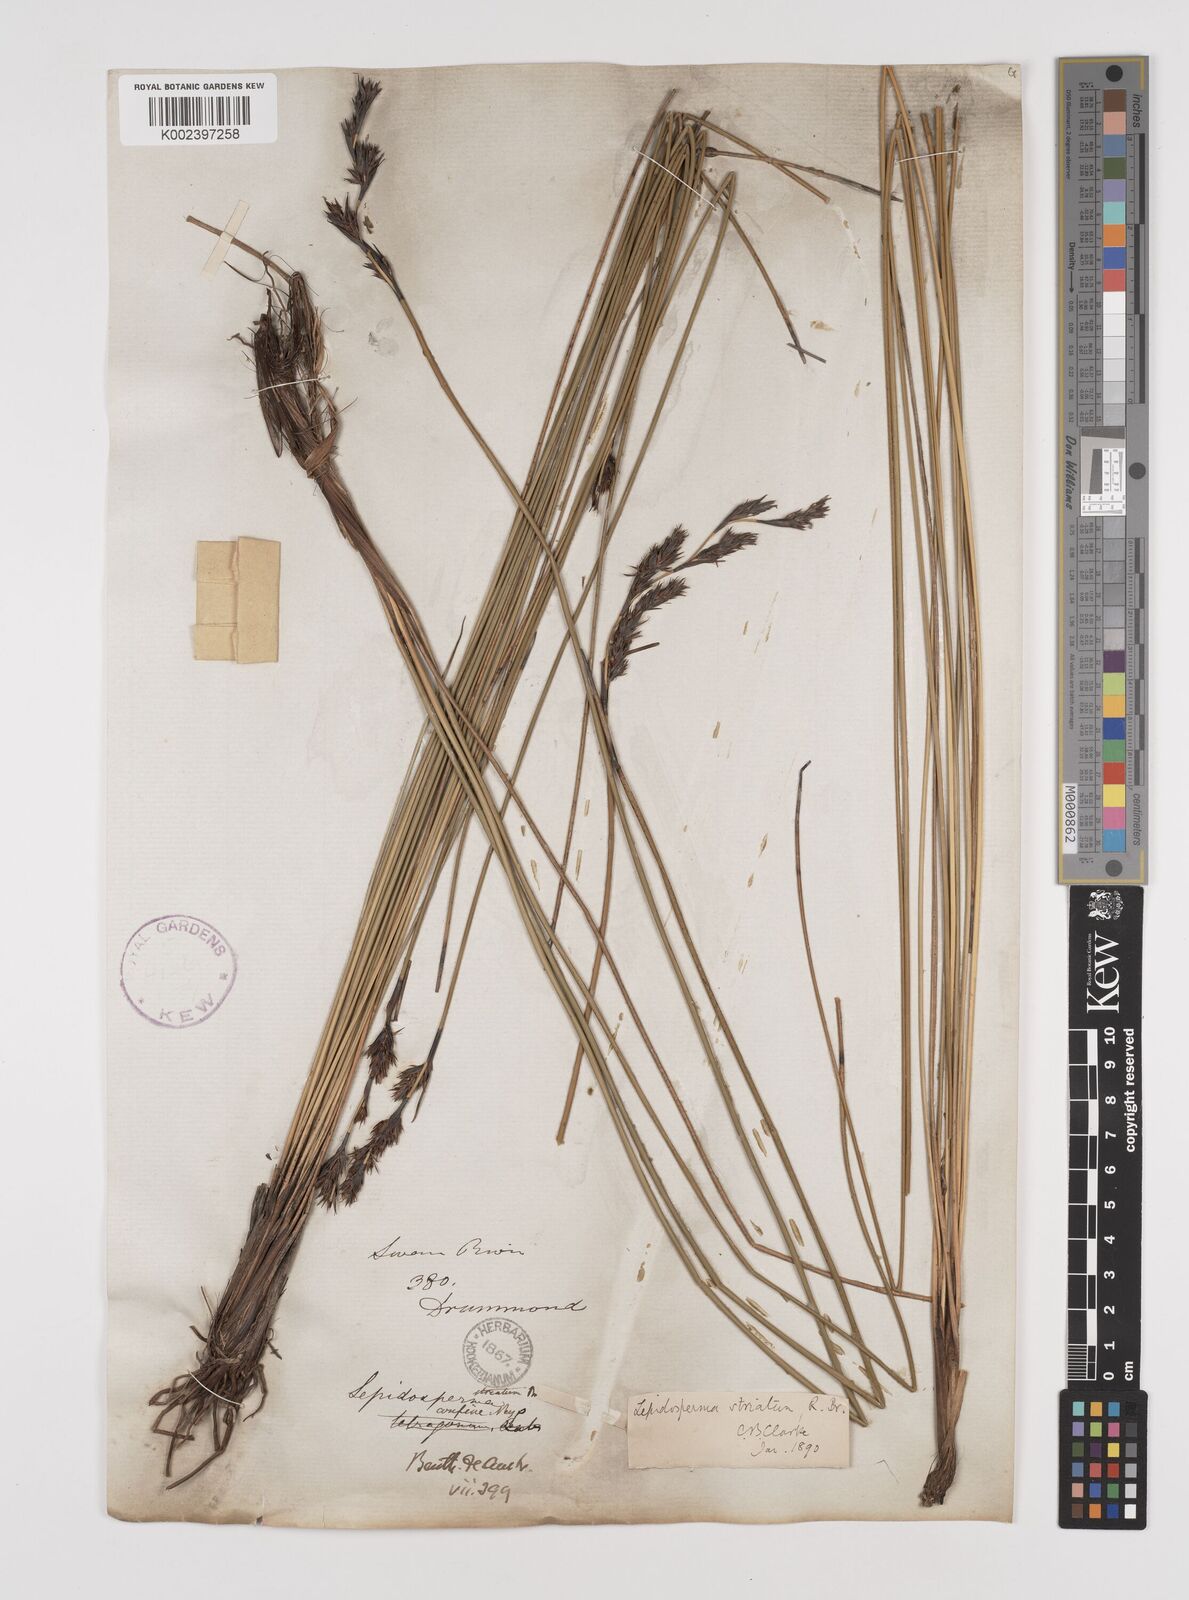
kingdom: Plantae
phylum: Tracheophyta
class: Liliopsida
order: Poales
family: Cyperaceae
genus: Lepidosperma
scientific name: Lepidosperma striatum
